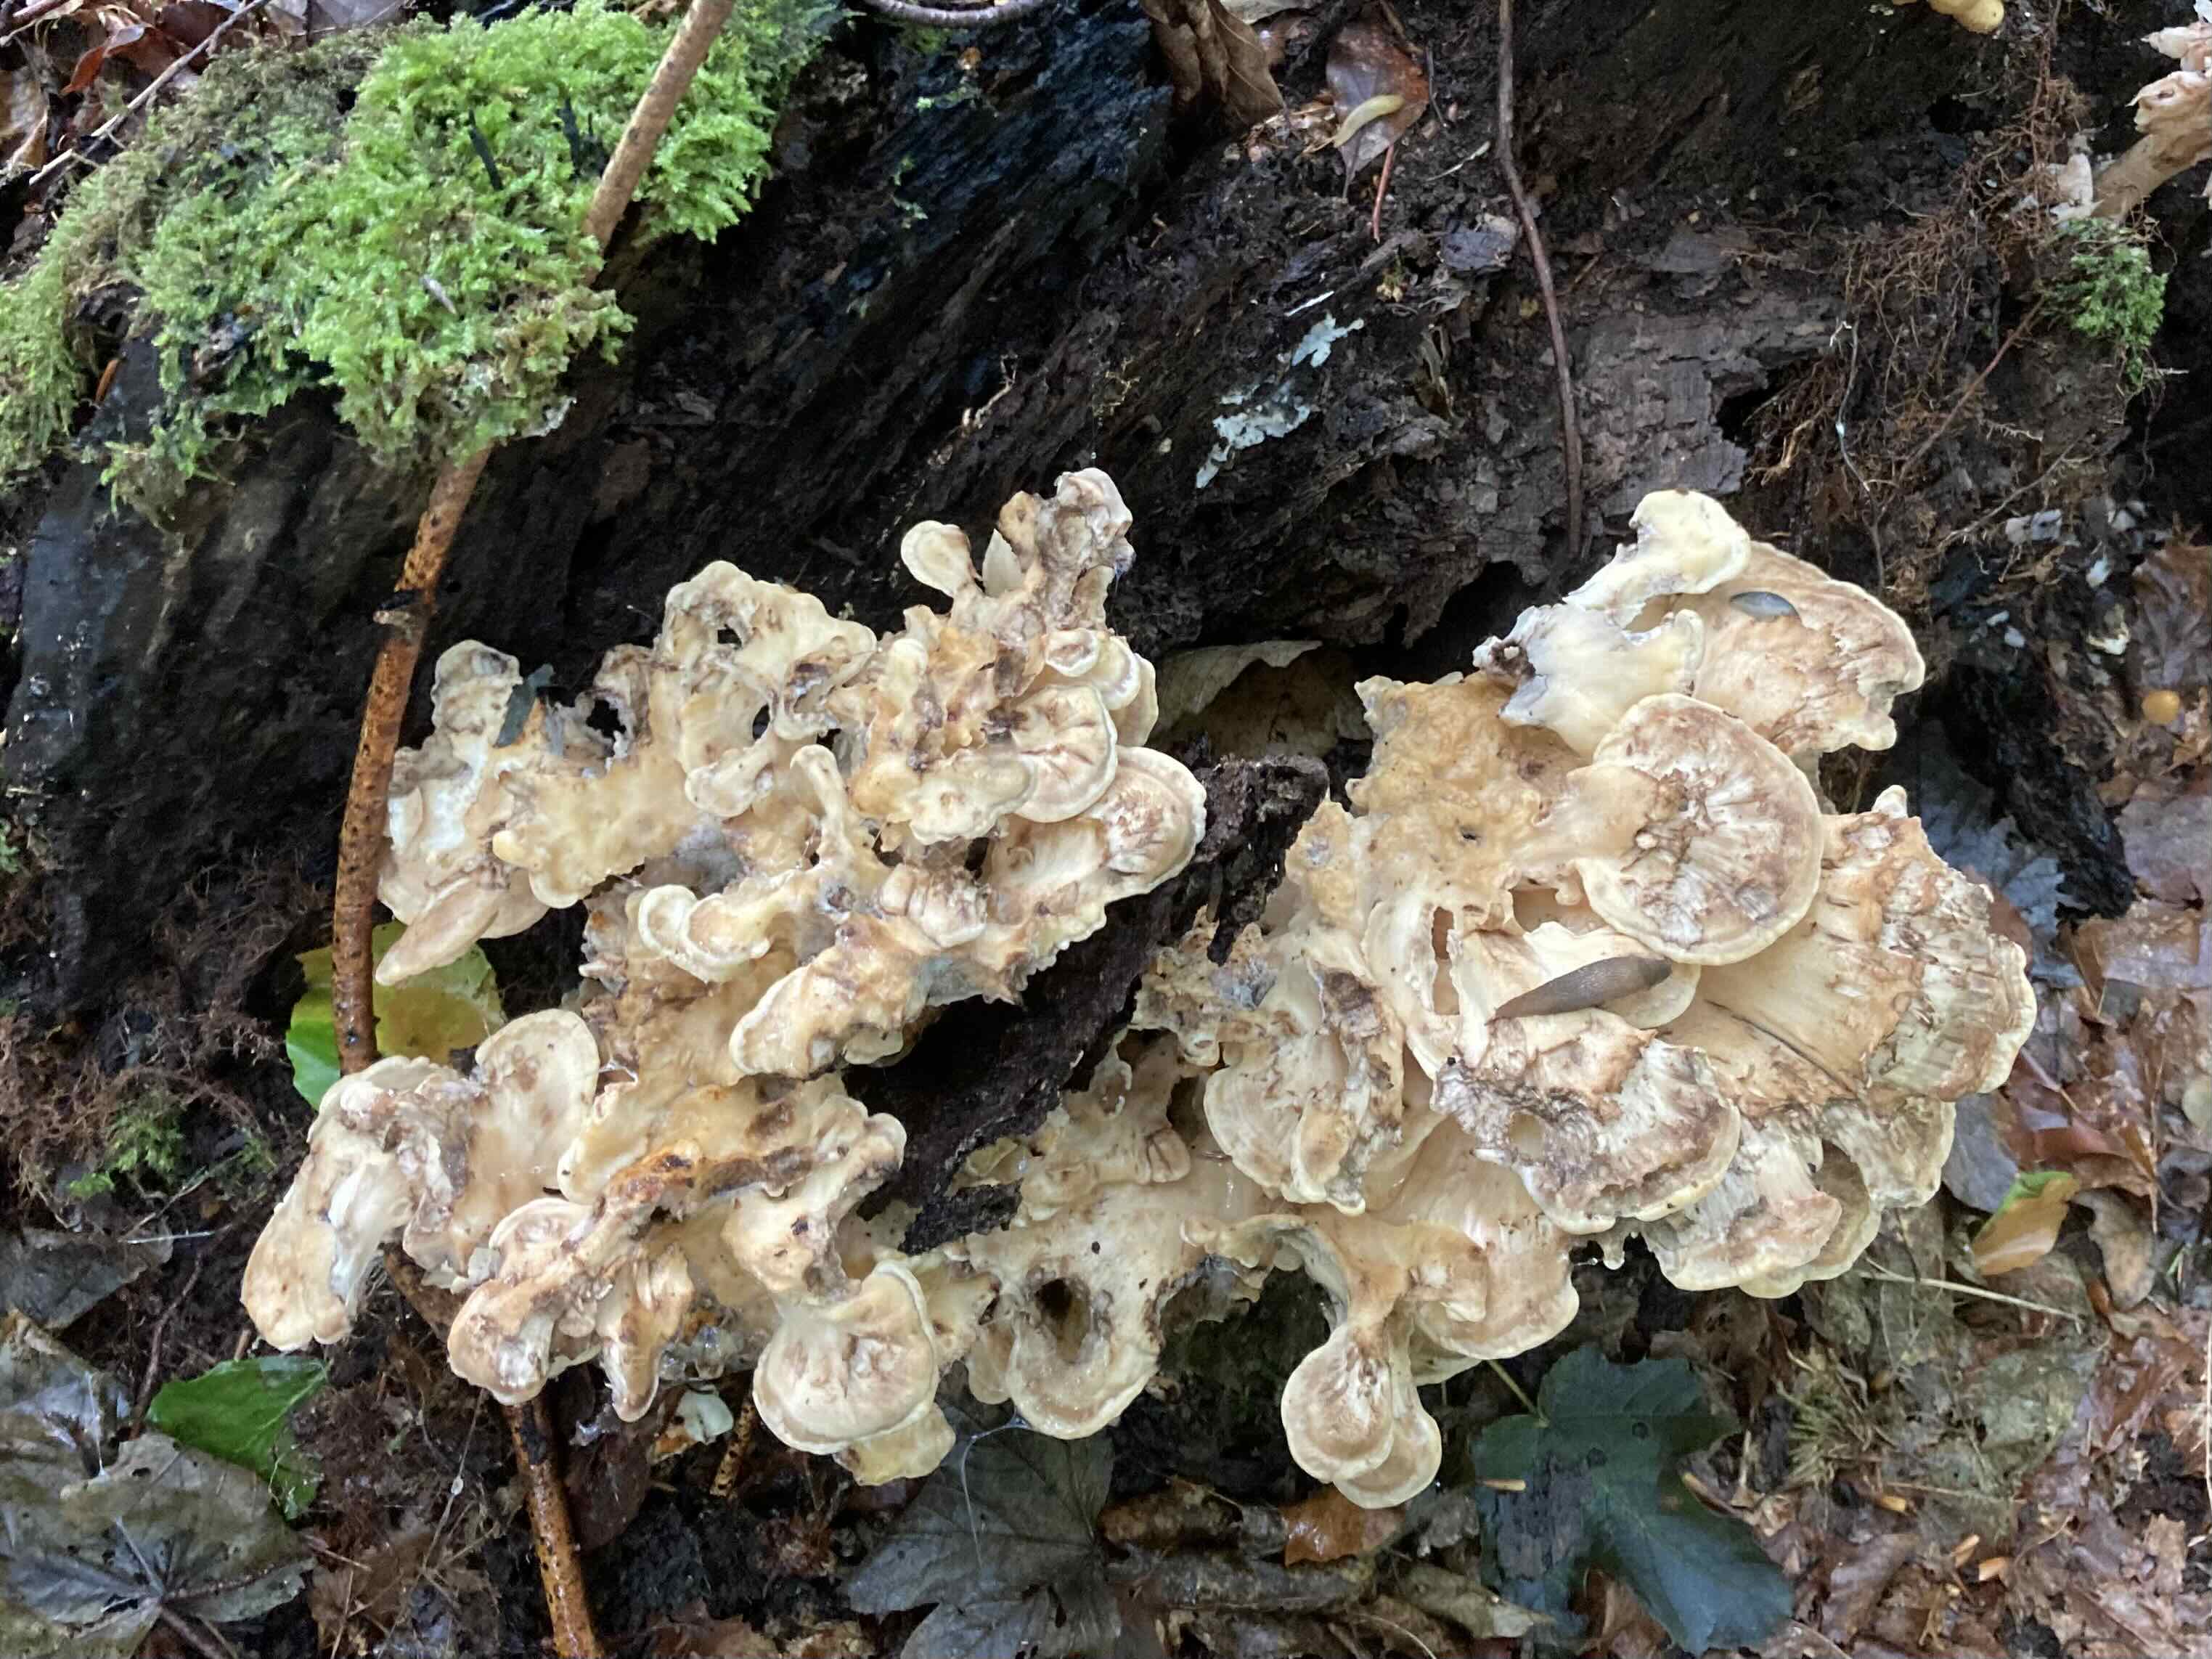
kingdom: Fungi
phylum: Basidiomycota
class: Agaricomycetes
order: Polyporales
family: Meripilaceae
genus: Meripilus
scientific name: Meripilus giganteus
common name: kæmpeporesvamp
